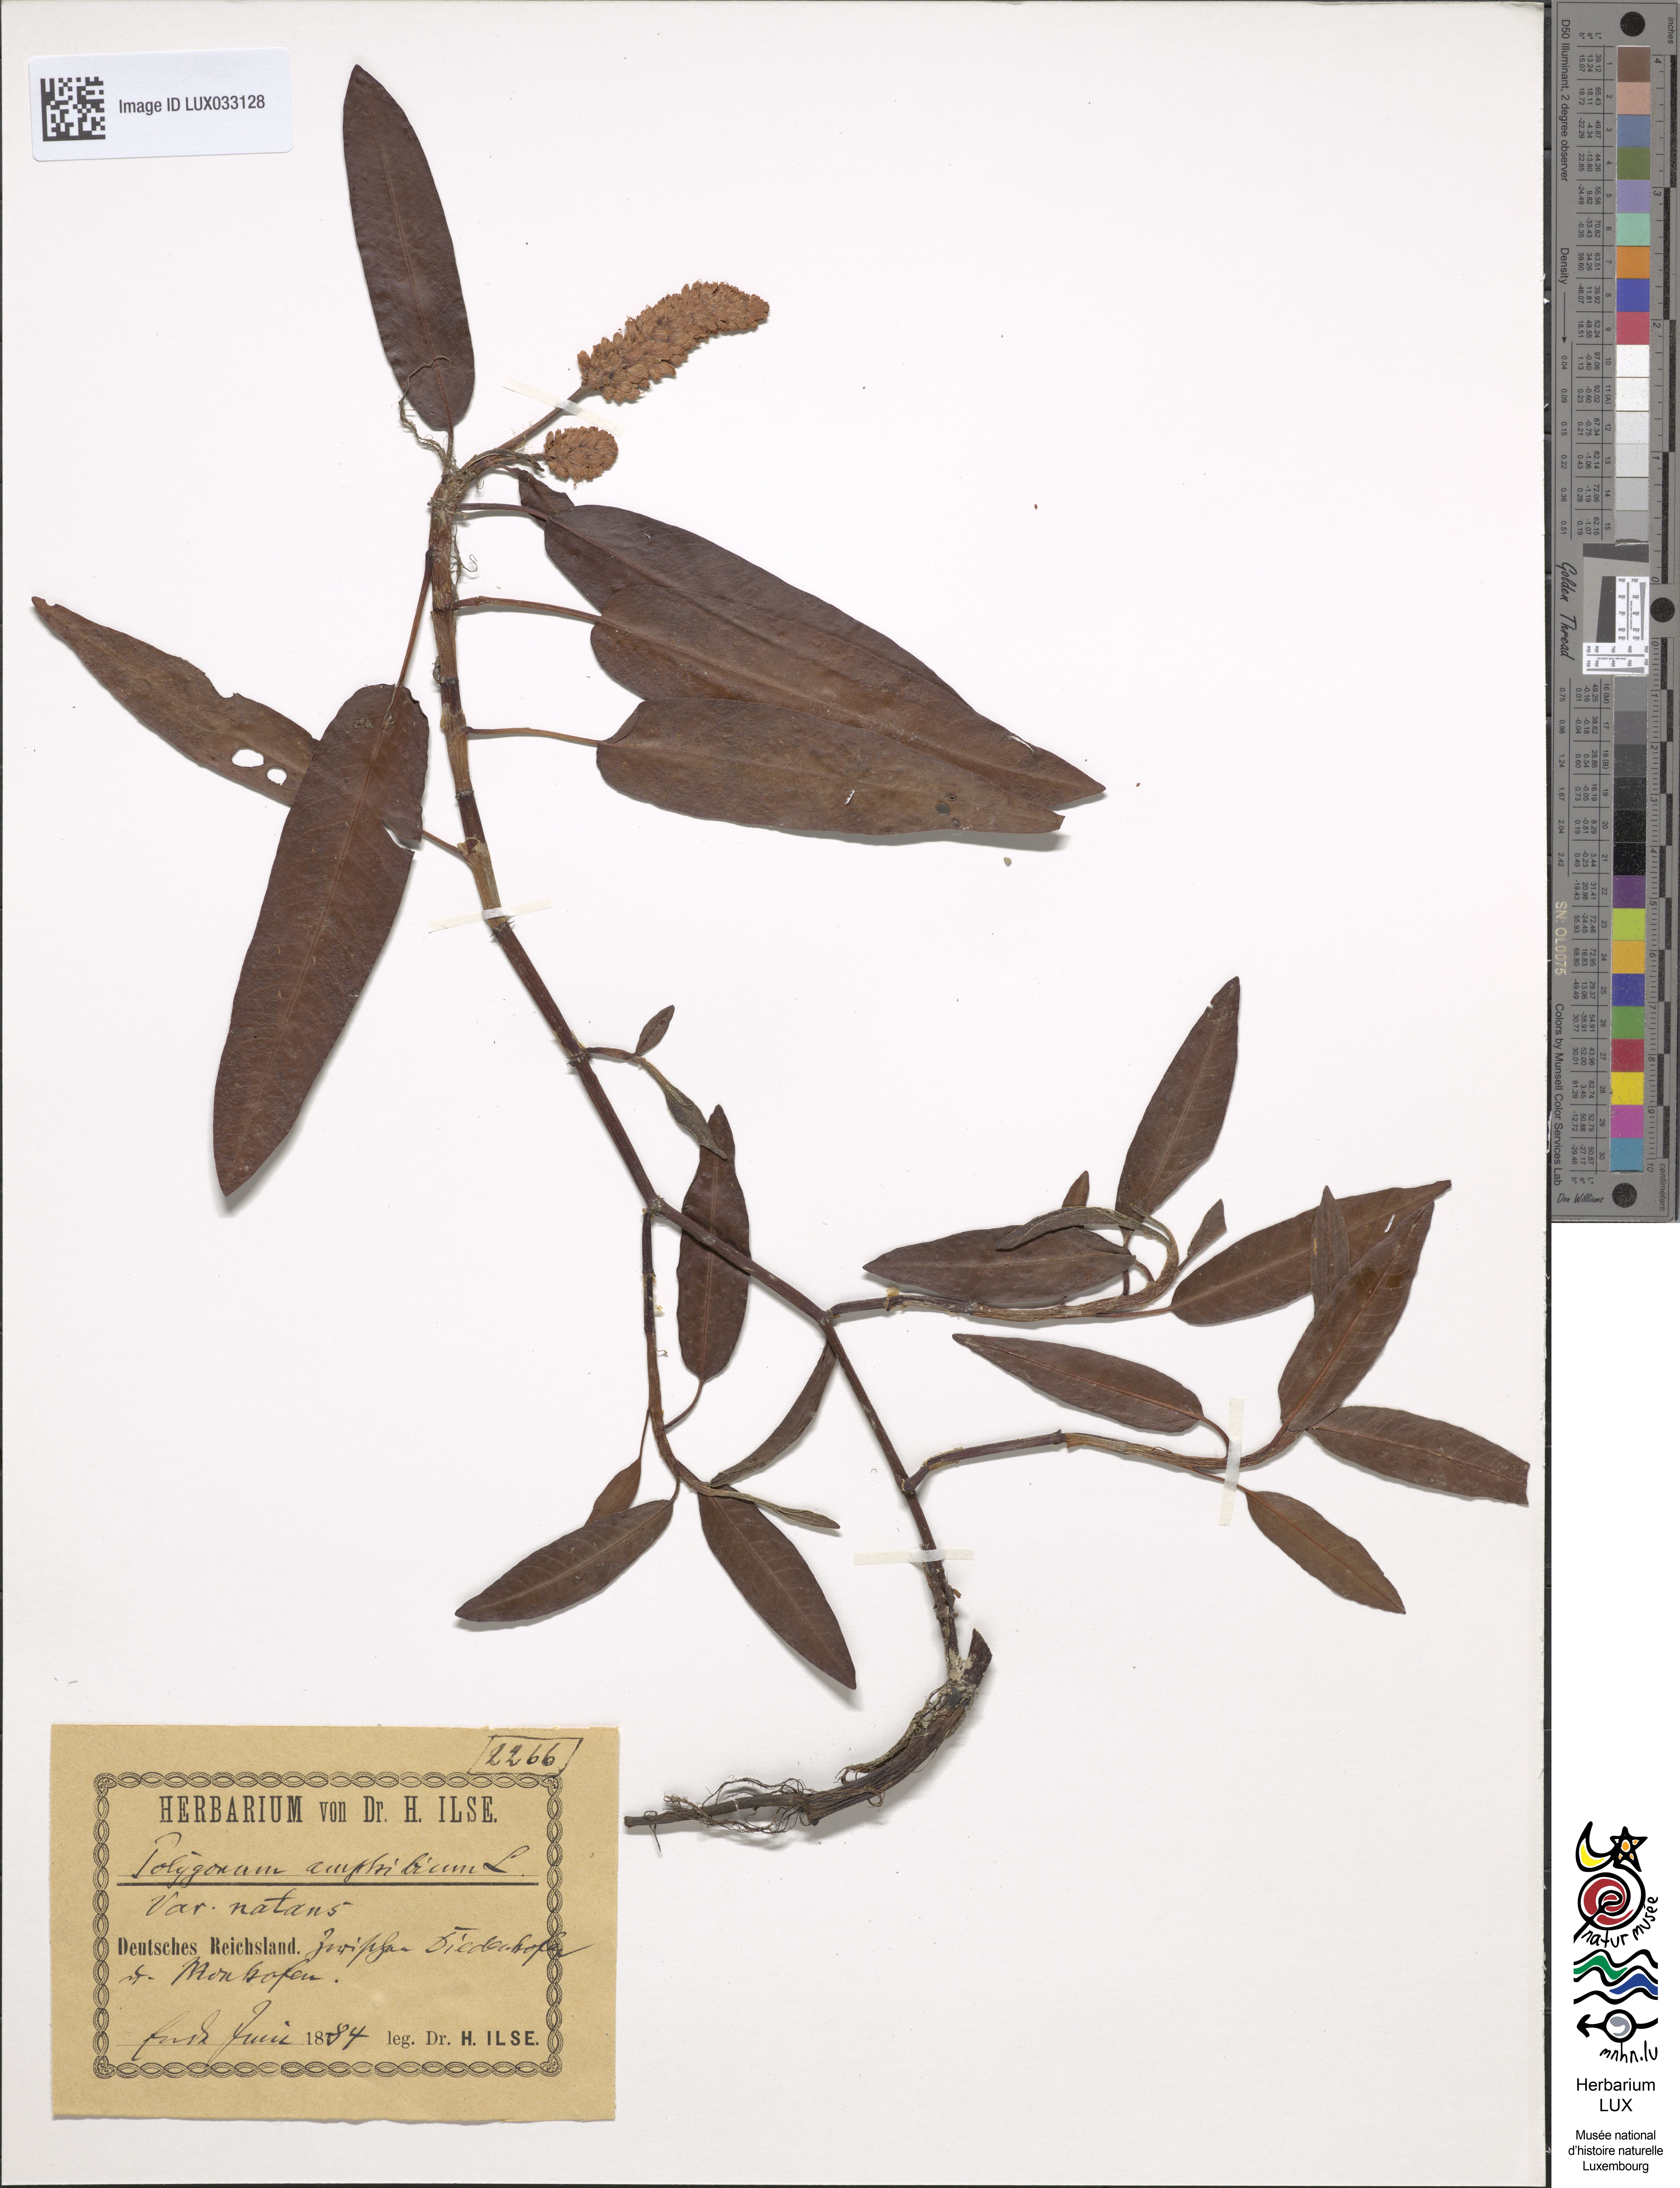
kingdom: Plantae
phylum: Tracheophyta
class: Magnoliopsida
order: Caryophyllales
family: Polygonaceae
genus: Persicaria
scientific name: Persicaria amphibia
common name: Amphibious bistort
